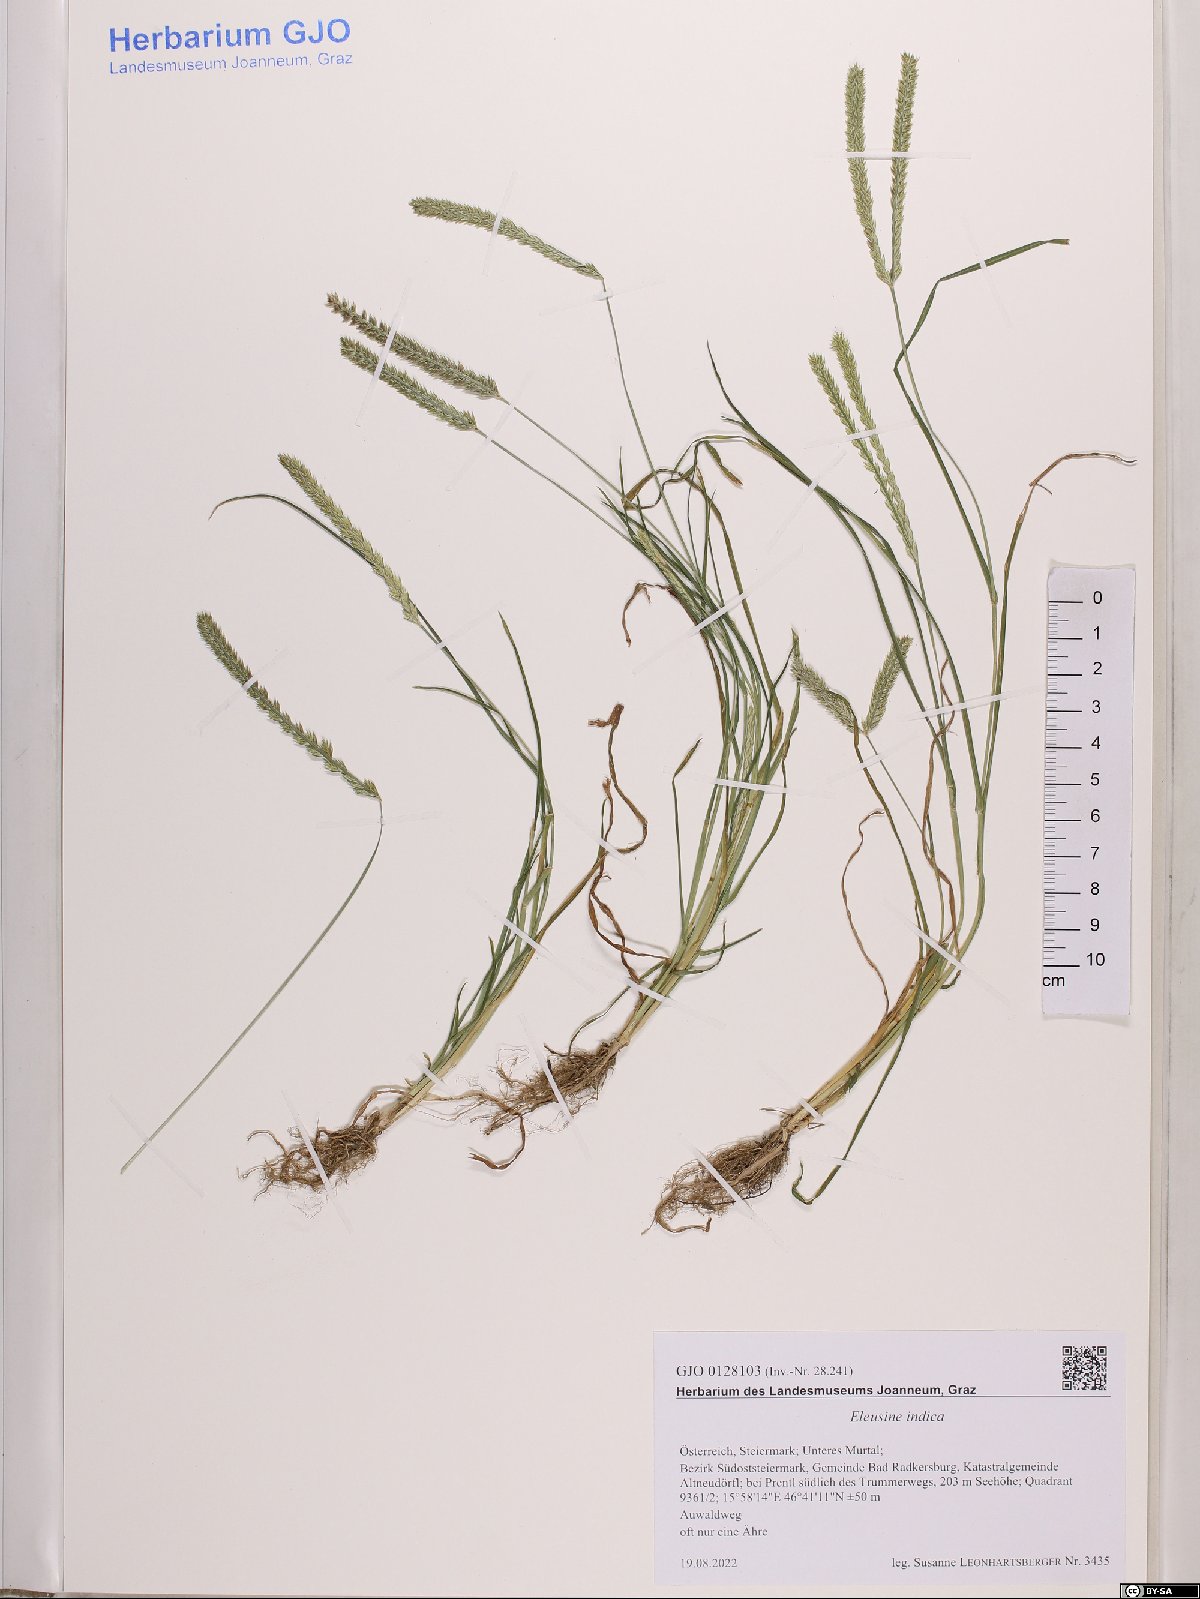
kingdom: Plantae
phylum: Tracheophyta
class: Liliopsida
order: Poales
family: Poaceae
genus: Eleusine
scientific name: Eleusine indica
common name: Yard-grass
